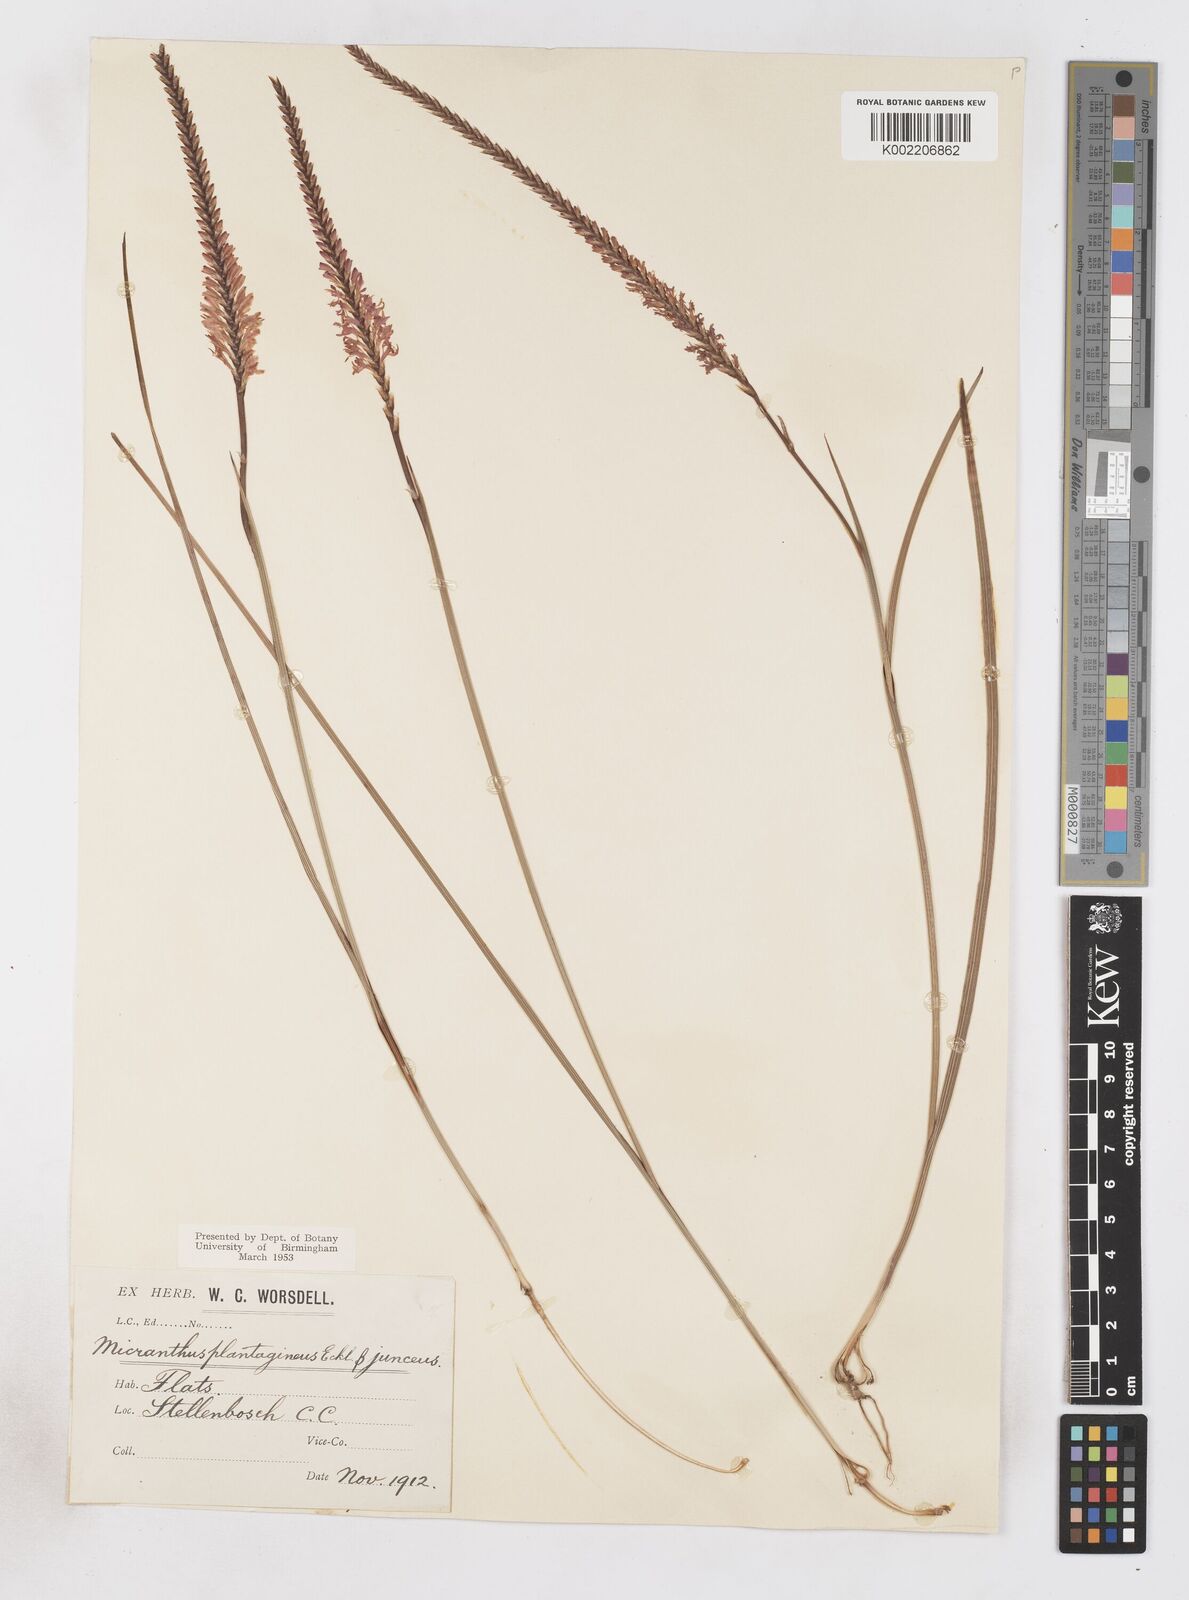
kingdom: Plantae
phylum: Tracheophyta
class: Liliopsida
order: Asparagales
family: Iridaceae
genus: Micranthus
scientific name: Micranthus plantagineus
